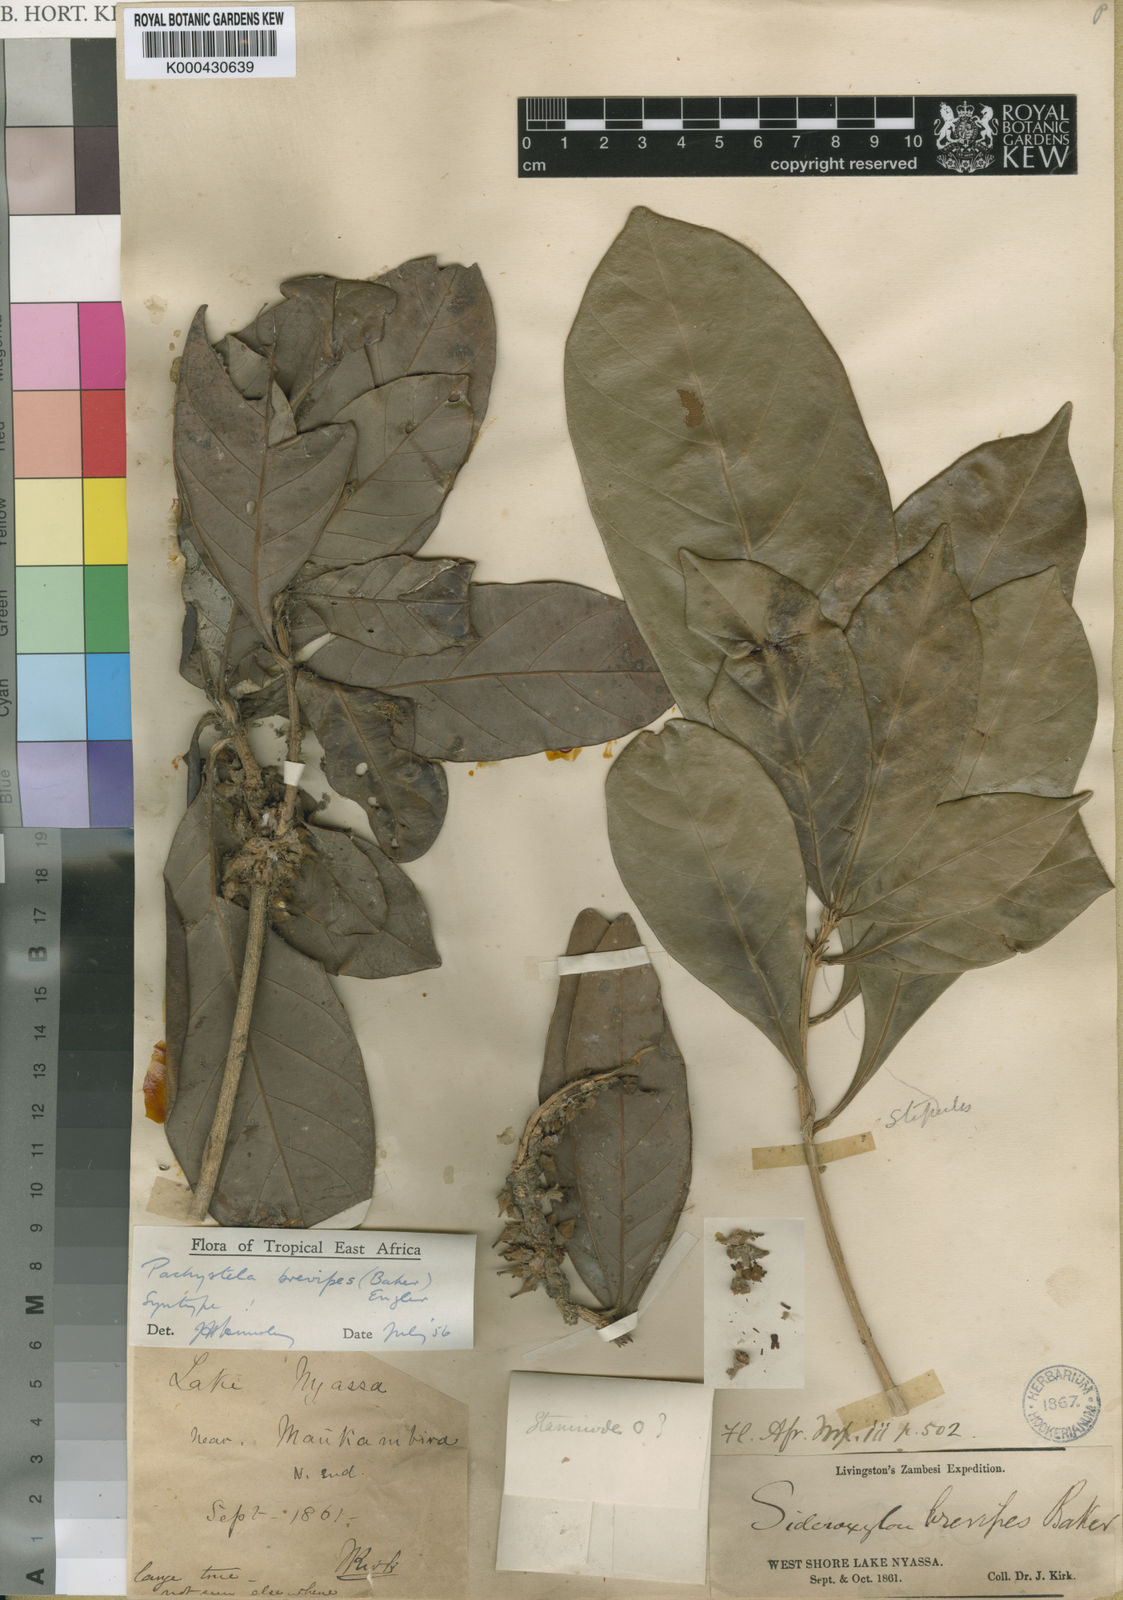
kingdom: Plantae
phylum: Tracheophyta
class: Magnoliopsida
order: Ericales
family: Sapotaceae
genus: Synsepalum
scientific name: Synsepalum brevipes
